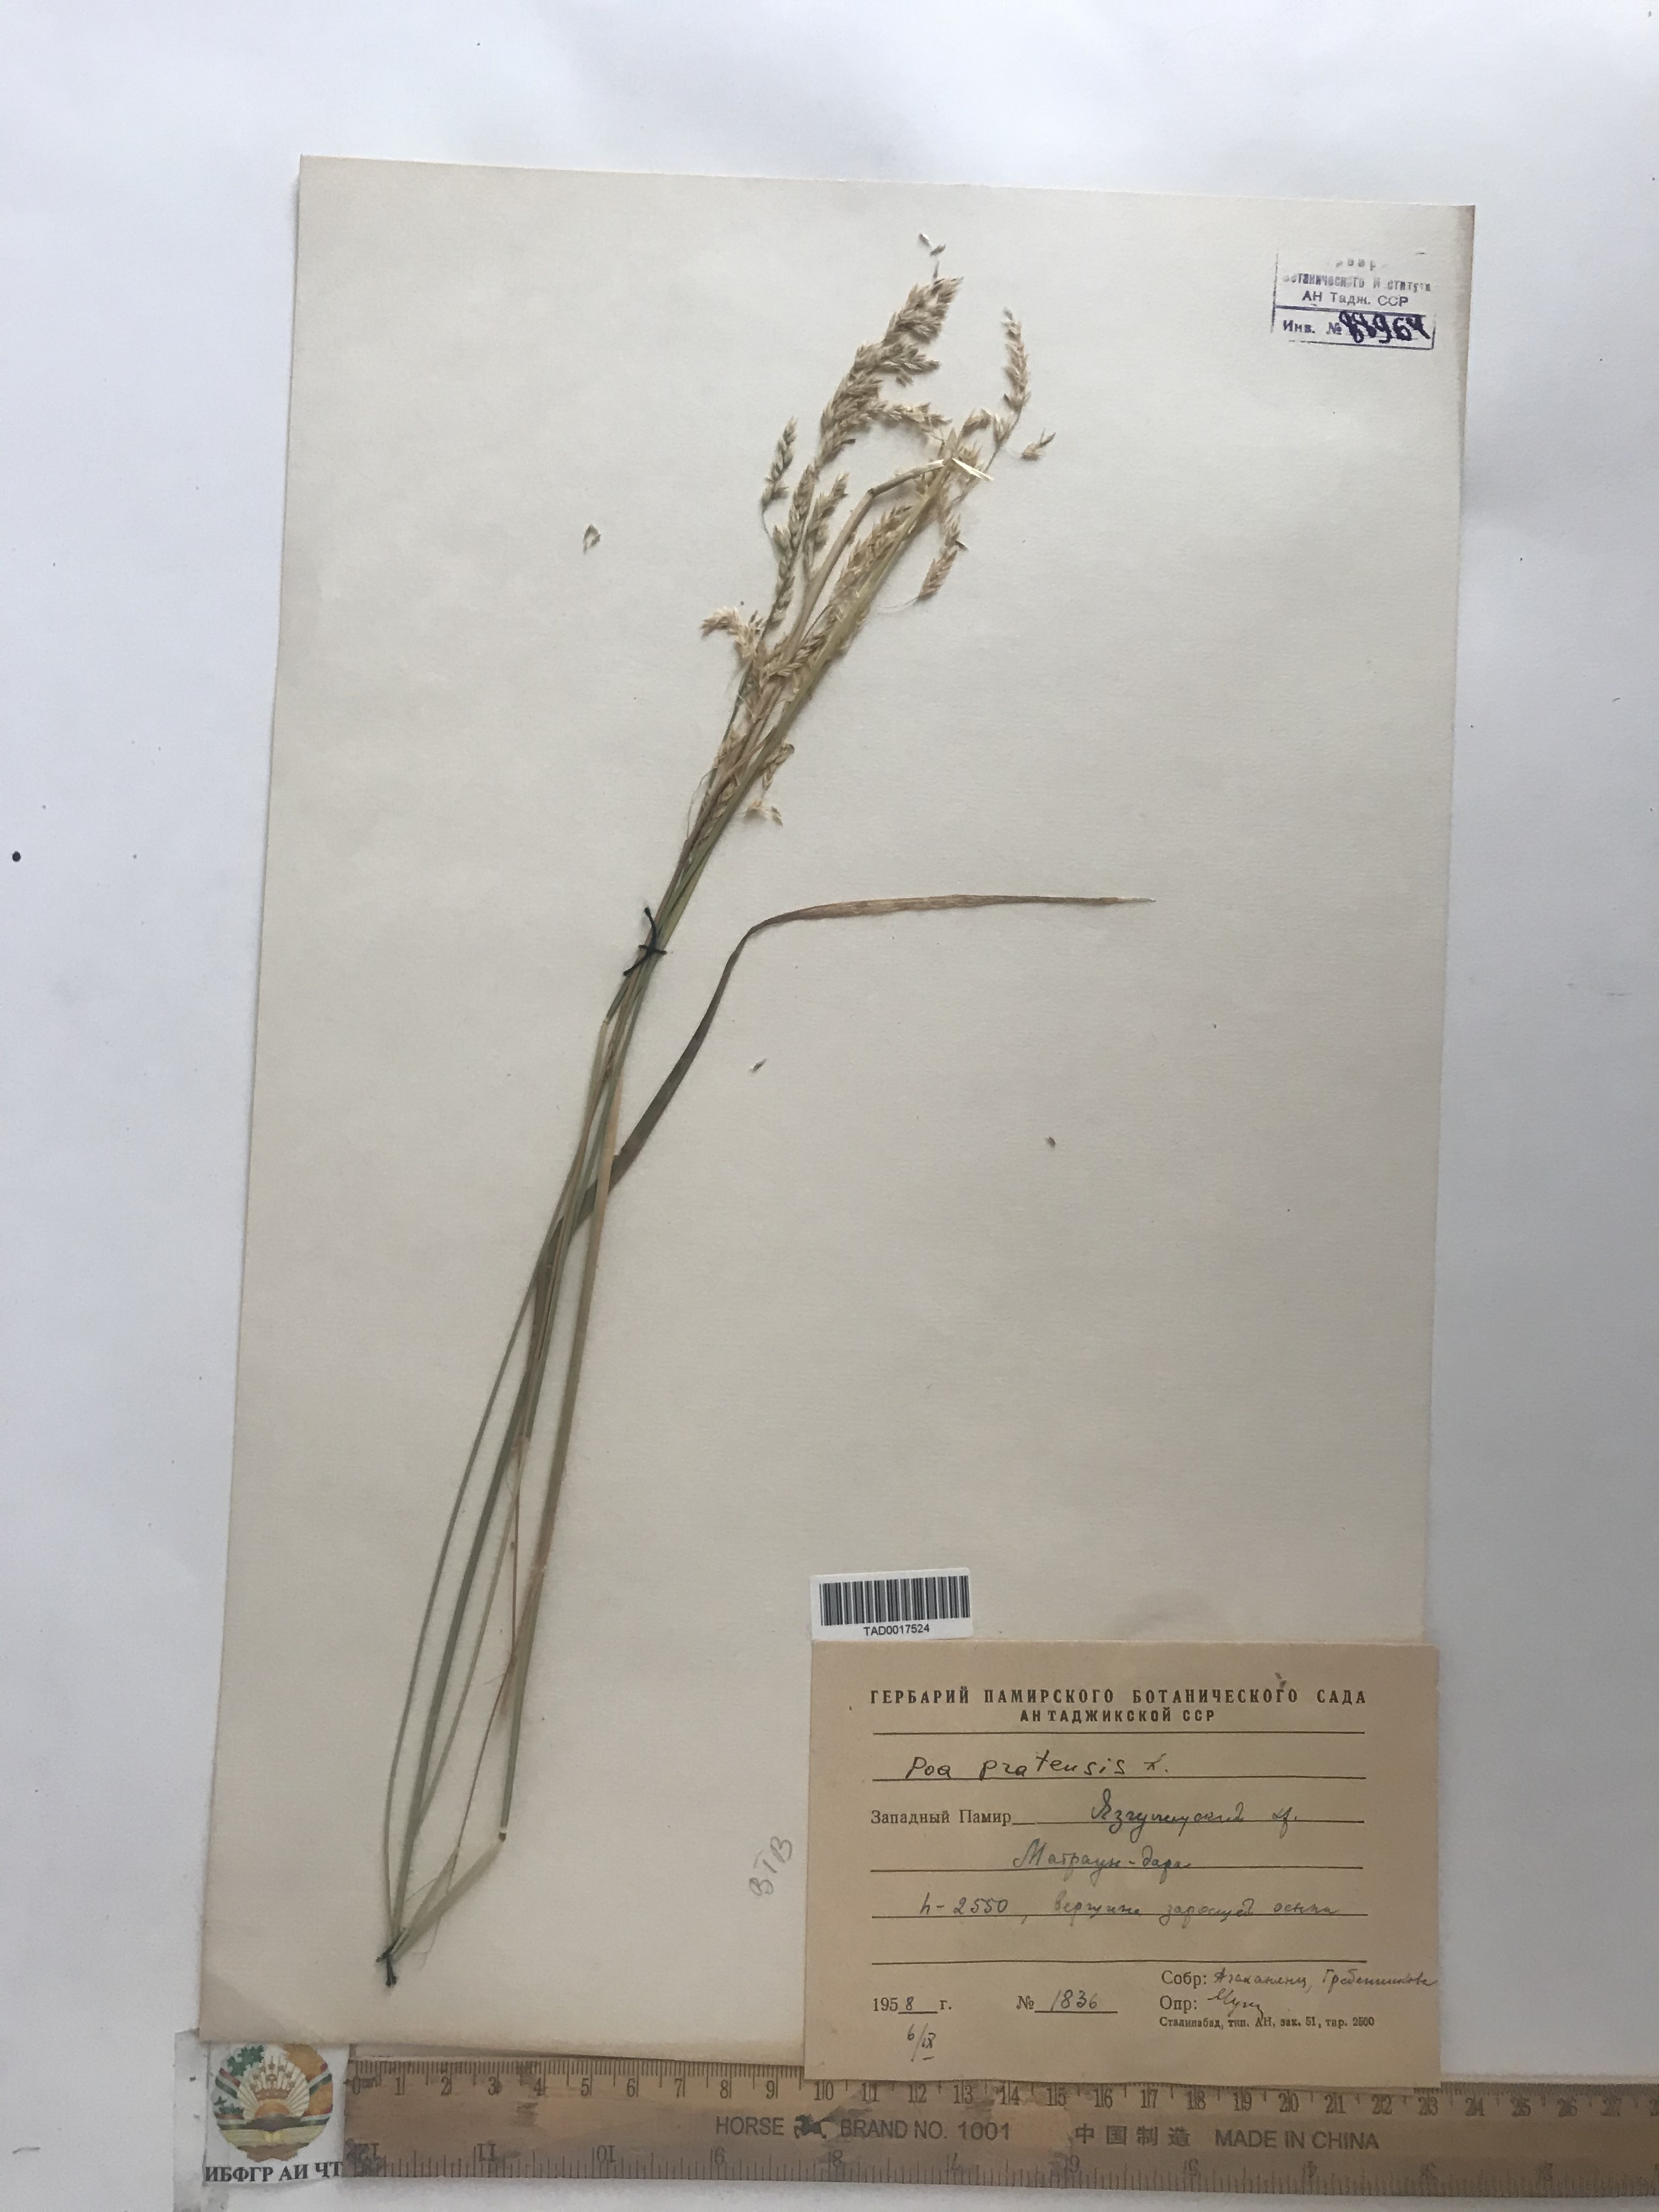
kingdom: Plantae
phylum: Tracheophyta
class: Liliopsida
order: Poales
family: Poaceae
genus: Poa
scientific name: Poa pratensis
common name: Kentucky bluegrass
